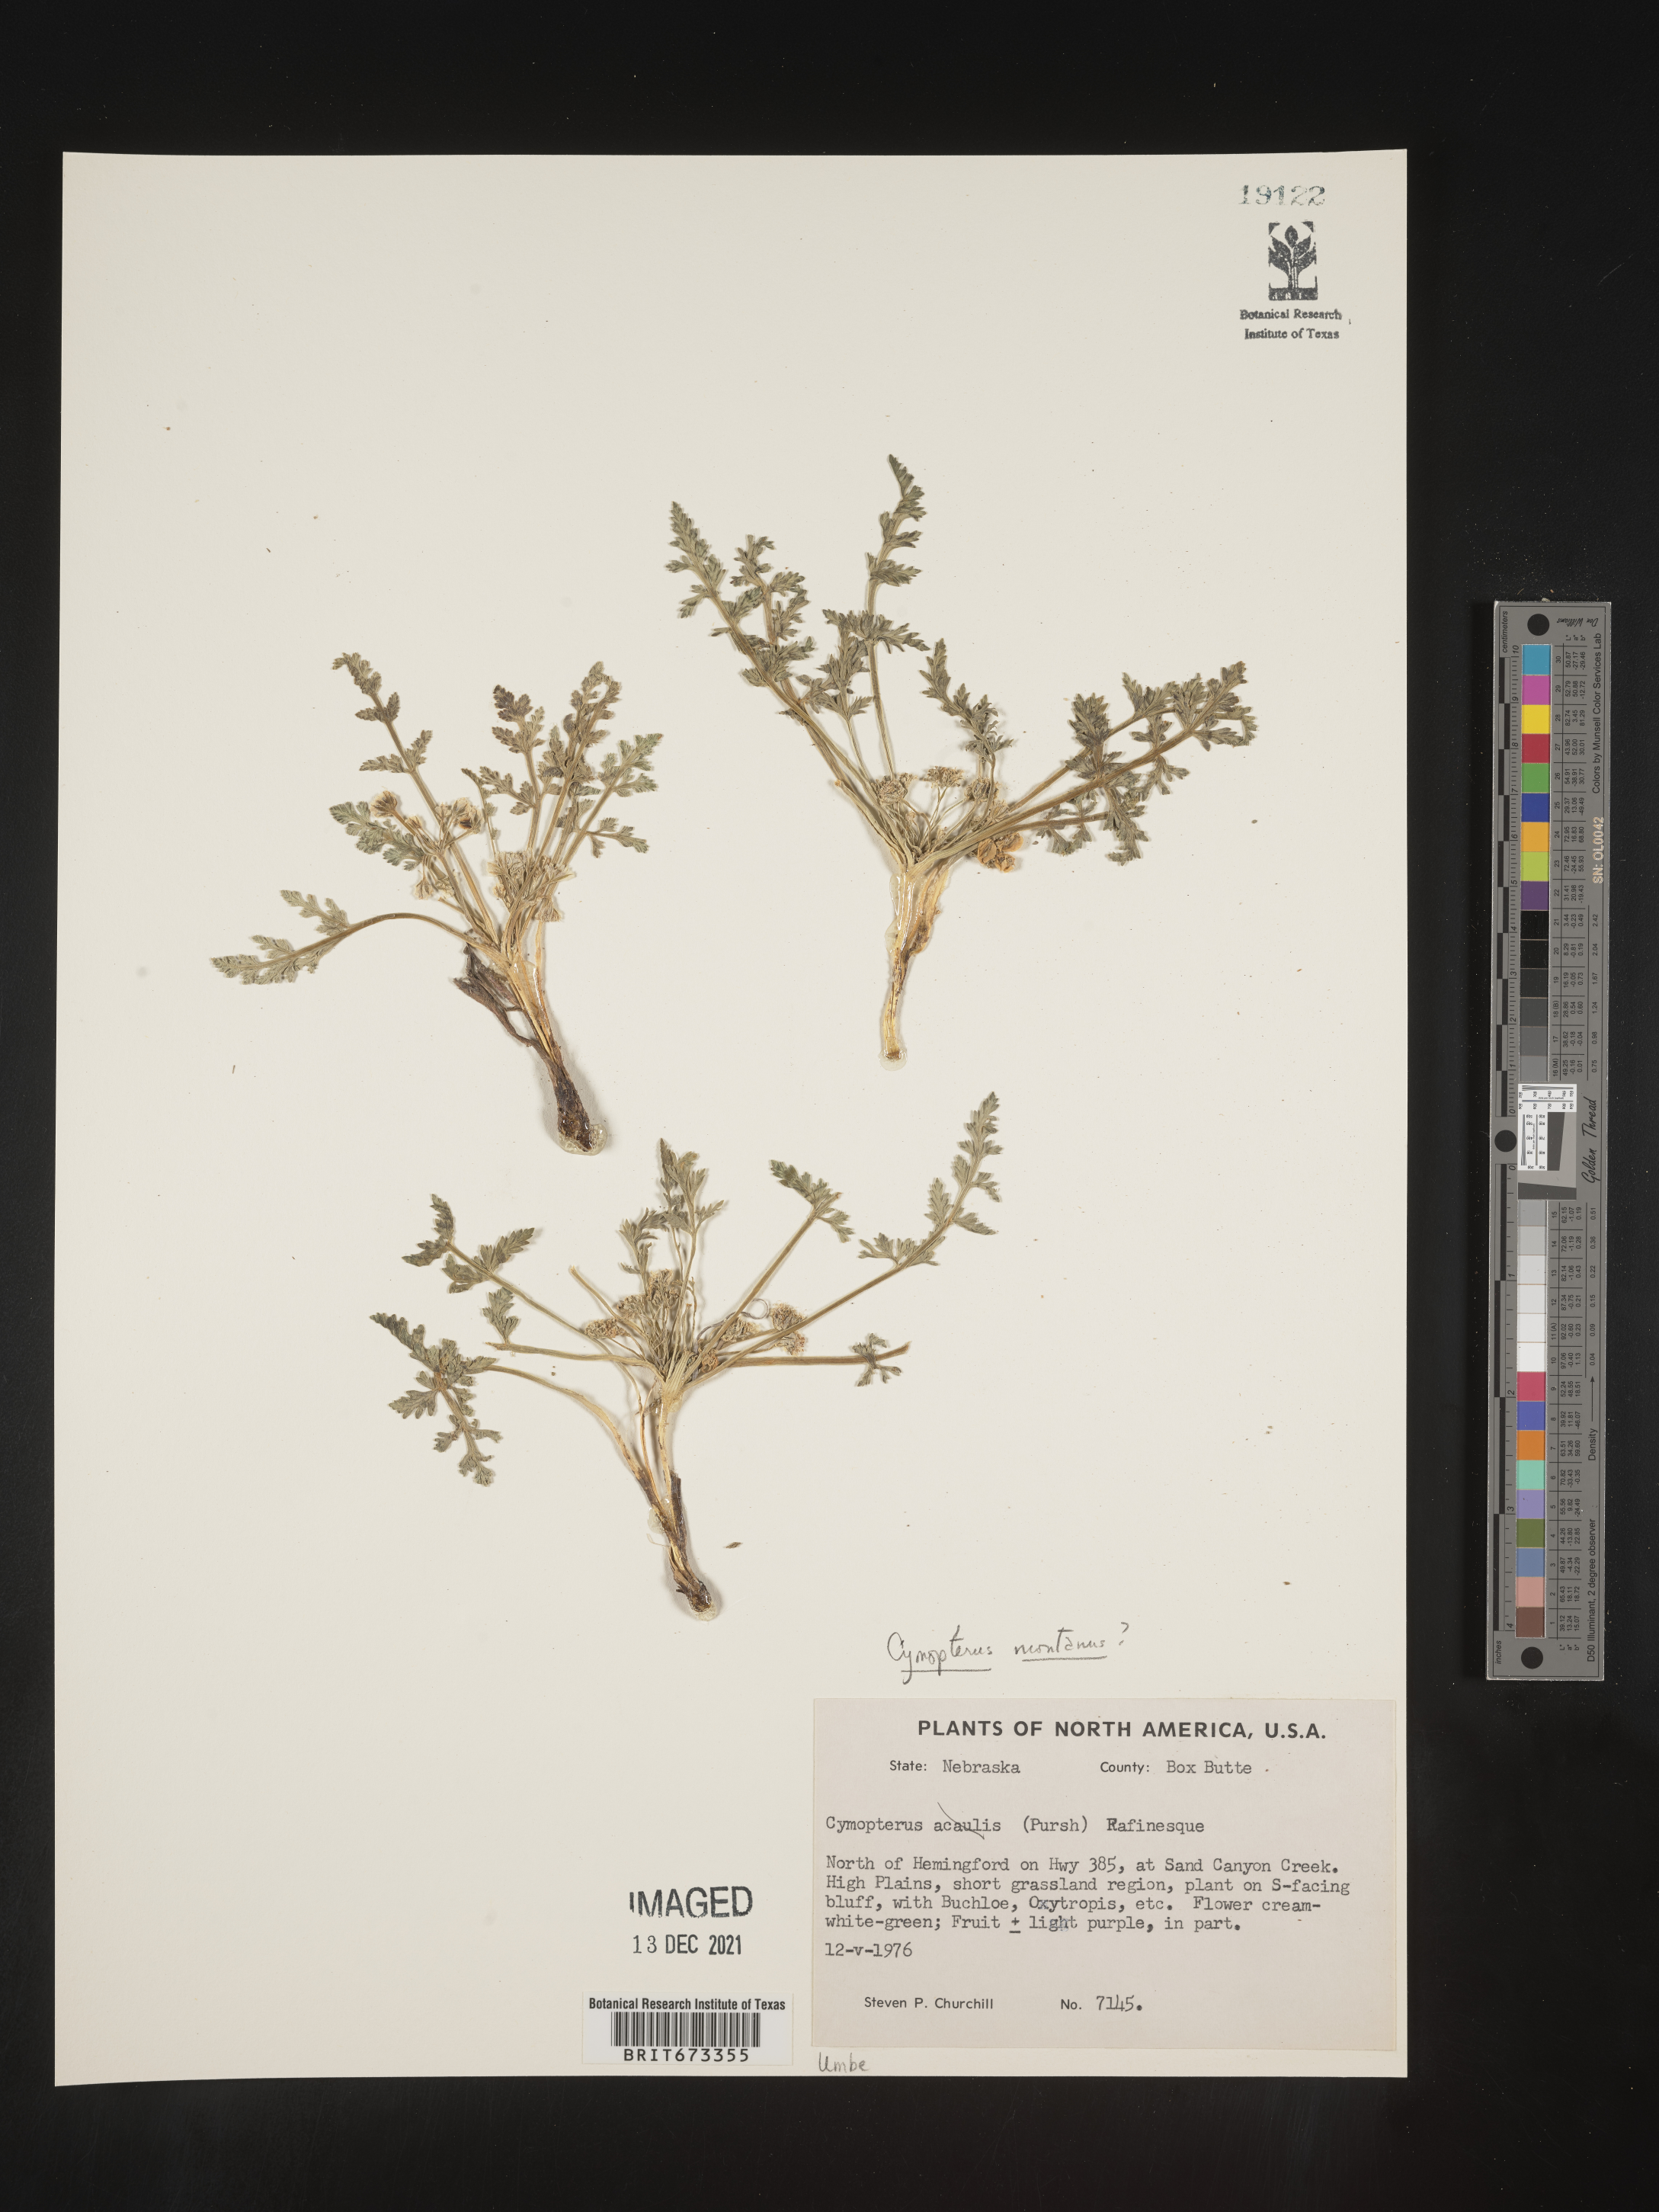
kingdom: Plantae
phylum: Tracheophyta
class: Magnoliopsida
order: Apiales
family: Apiaceae
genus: Vesper
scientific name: Vesper montanus
